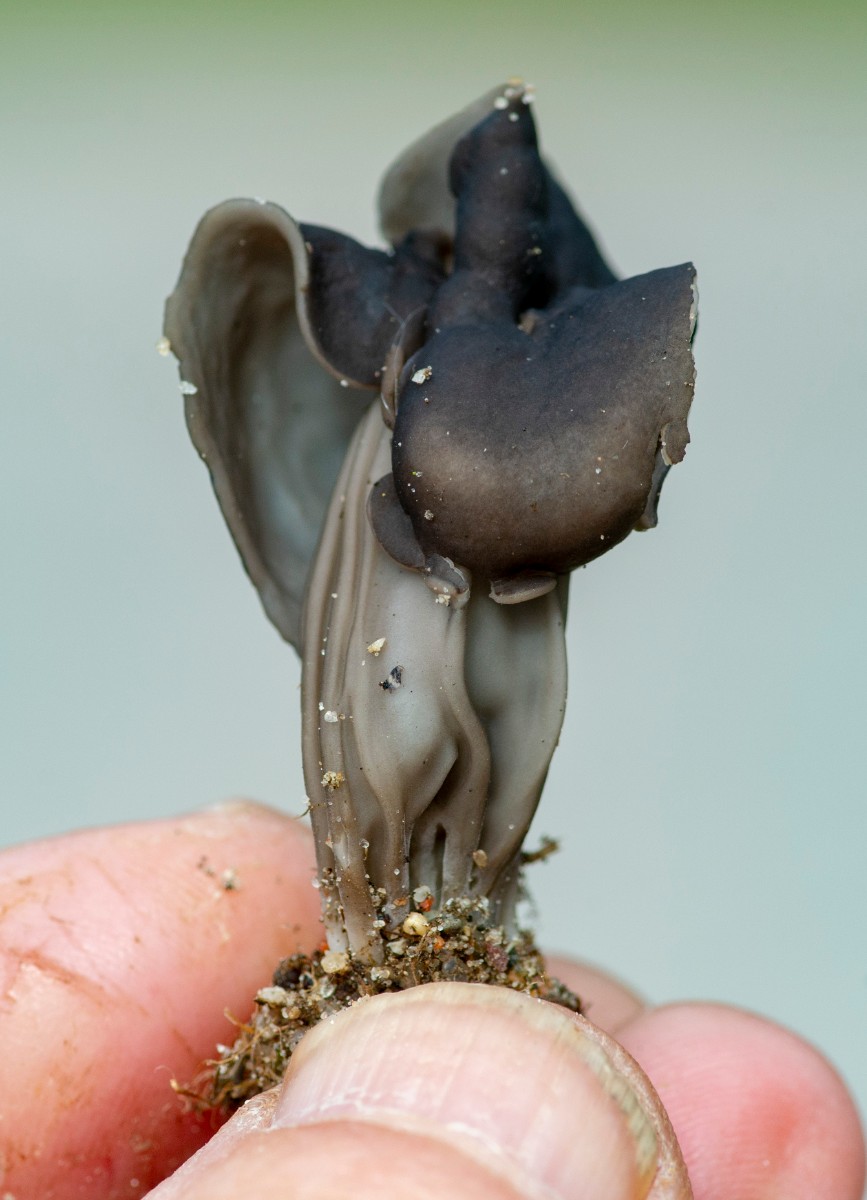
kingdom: Fungi
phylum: Ascomycota
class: Pezizomycetes
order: Pezizales
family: Helvellaceae
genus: Helvella
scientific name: Helvella lacunosa
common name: grubet foldhat
